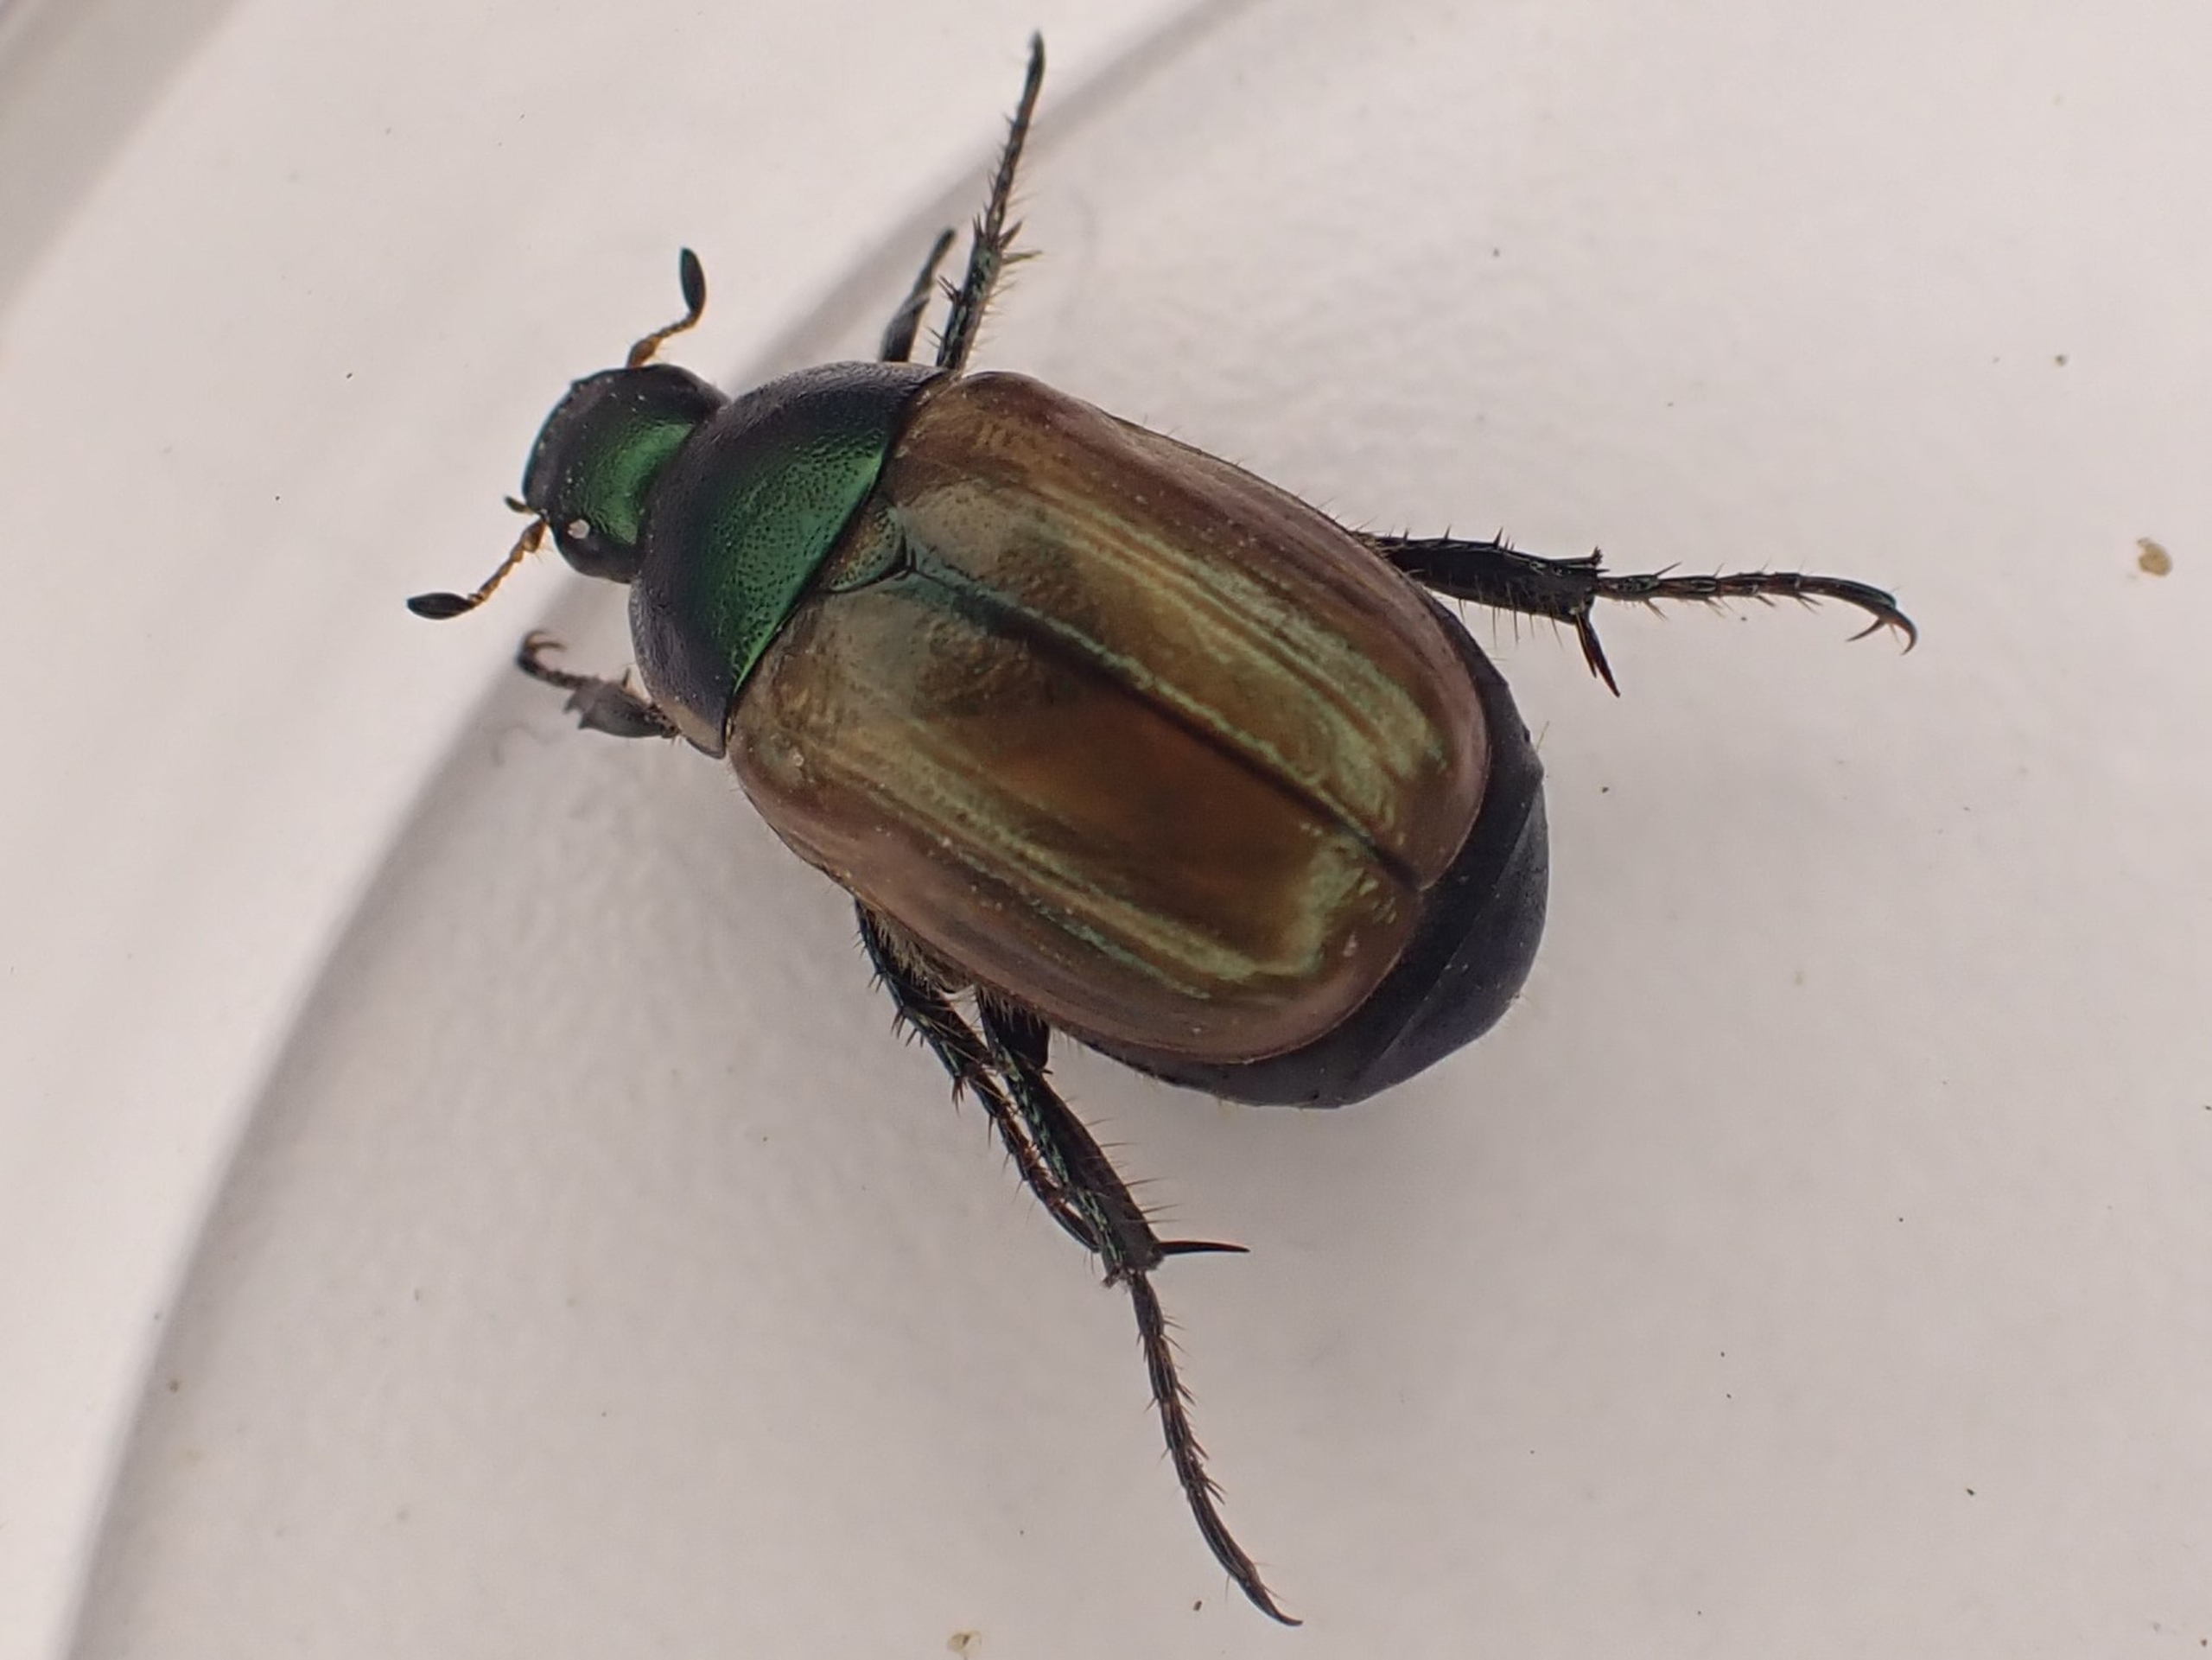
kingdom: Animalia
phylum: Arthropoda
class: Insecta
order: Coleoptera
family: Scarabaeidae
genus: Anomala
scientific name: Anomala dubia
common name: Klitoldenborre
